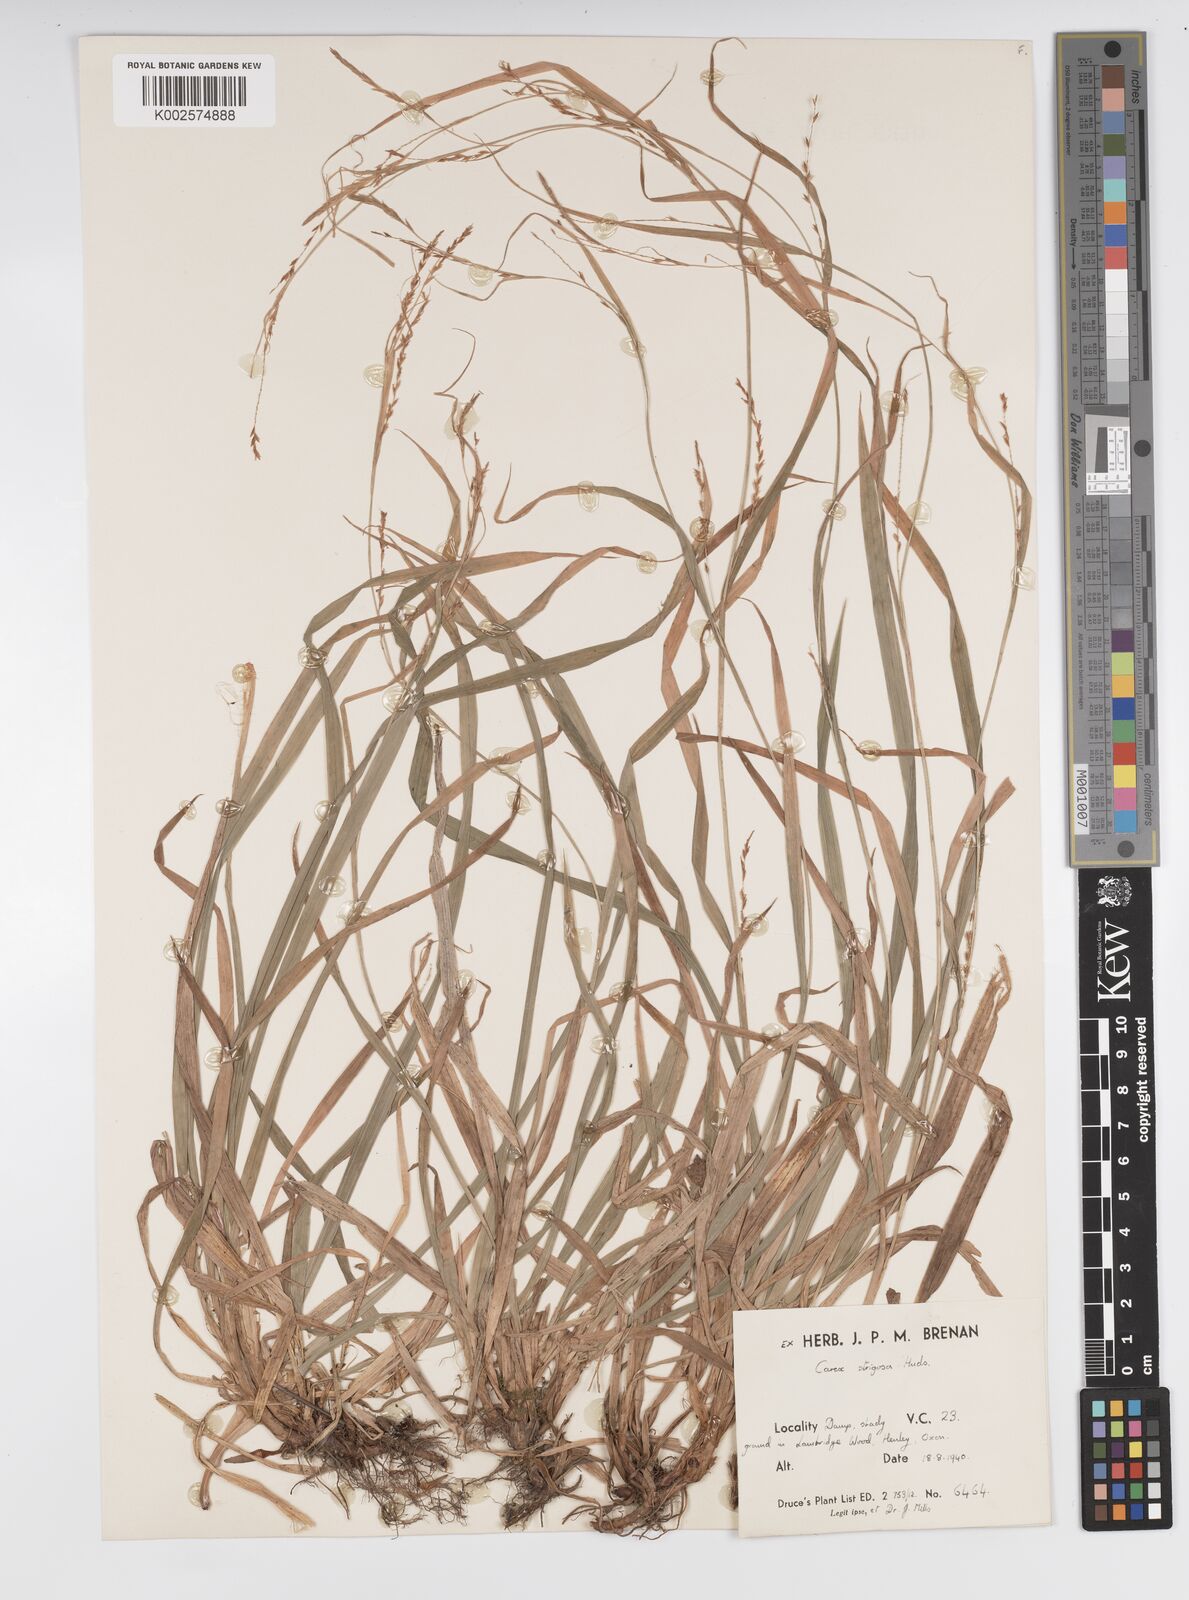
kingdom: Plantae
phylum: Tracheophyta
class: Liliopsida
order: Poales
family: Cyperaceae
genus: Carex
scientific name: Carex strigosa
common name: Thin-spiked wood-sedge
